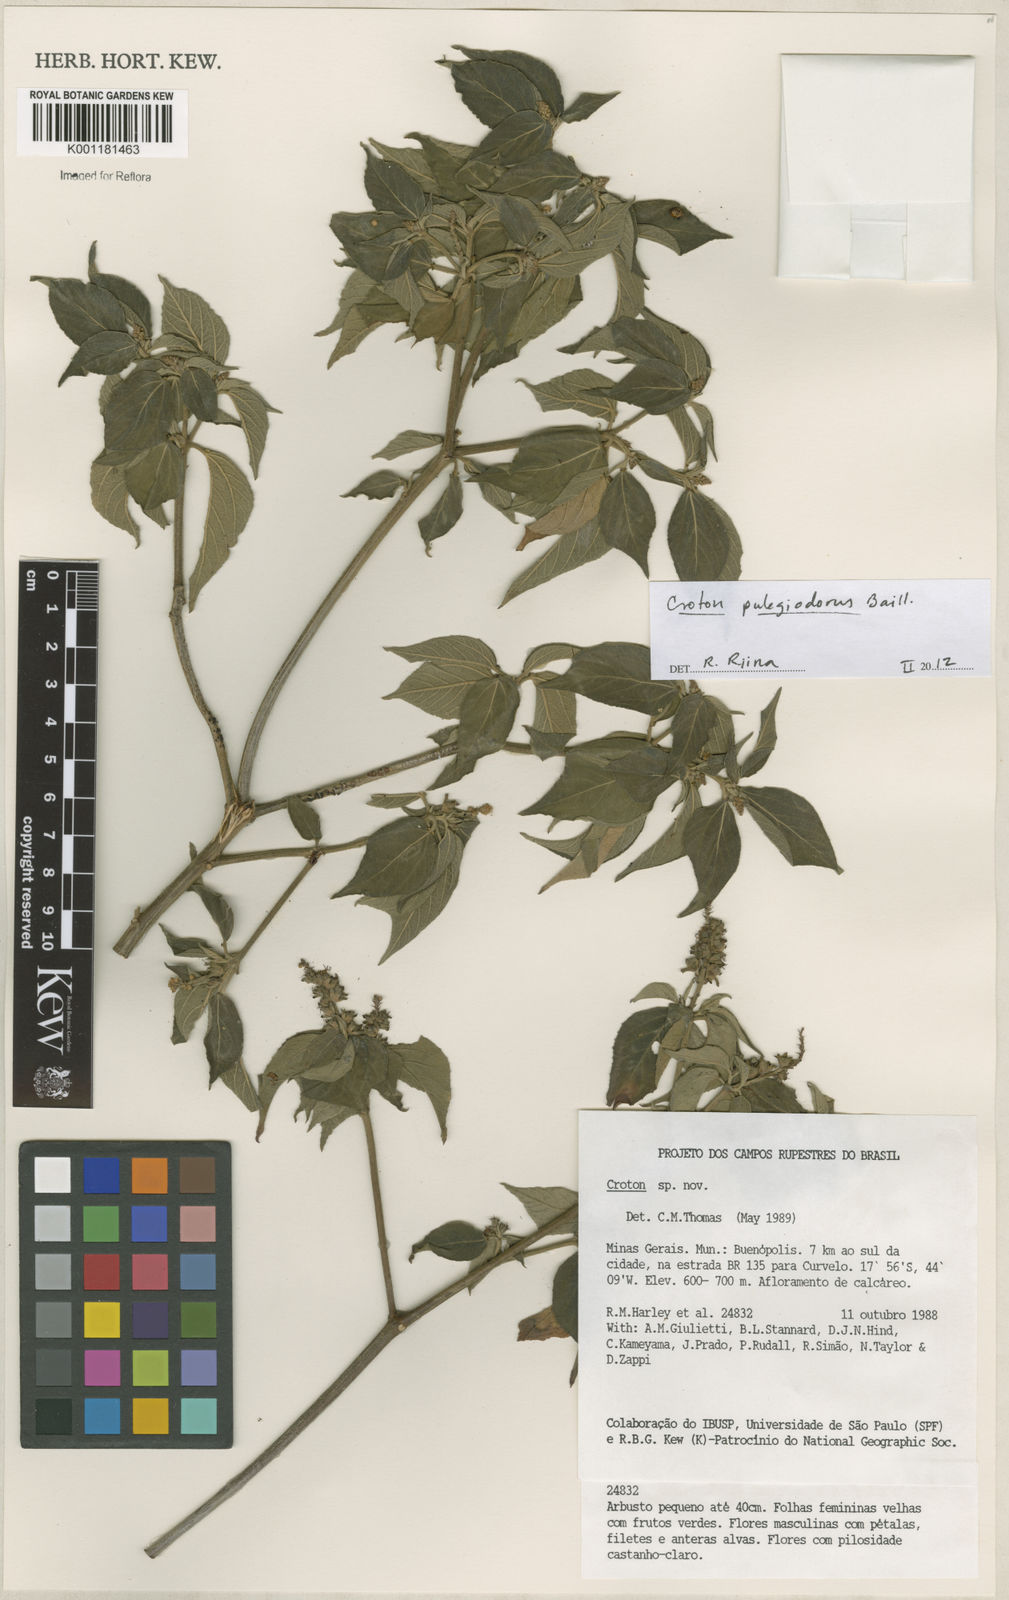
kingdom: Plantae
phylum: Tracheophyta
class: Magnoliopsida
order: Malpighiales
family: Euphorbiaceae
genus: Croton
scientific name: Croton pulegiodorus
